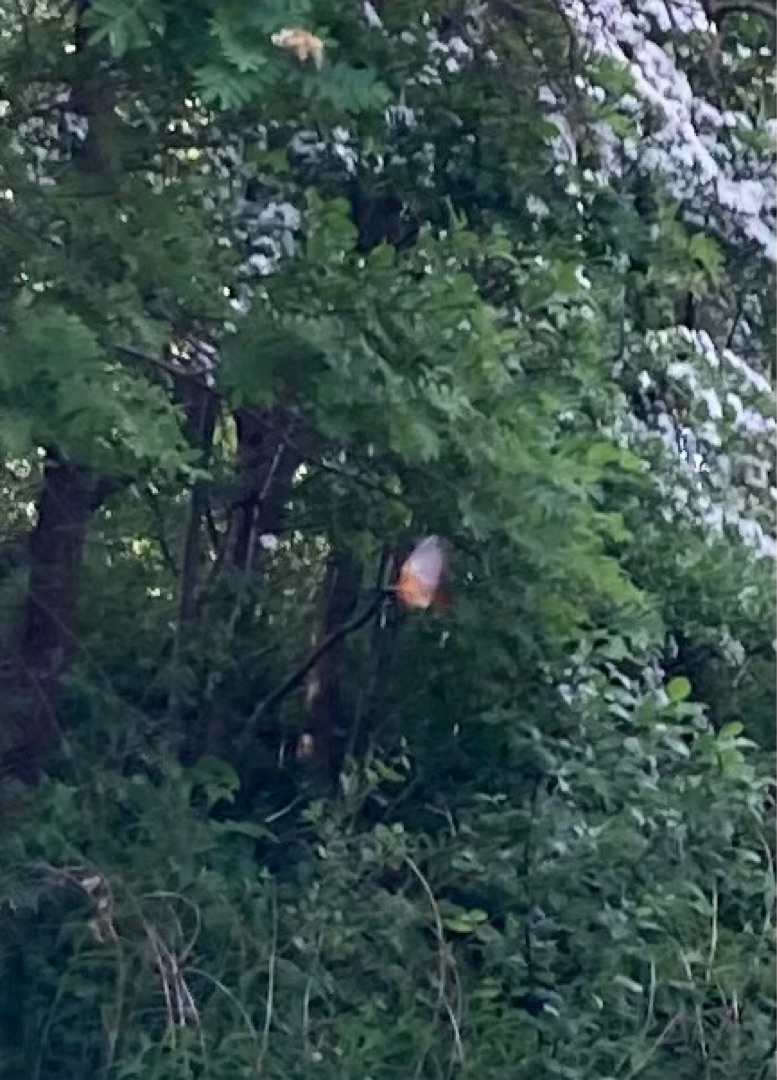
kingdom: Animalia
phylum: Chordata
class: Aves
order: Passeriformes
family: Muscicapidae
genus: Phoenicurus
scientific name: Phoenicurus phoenicurus
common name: Rødstjert
